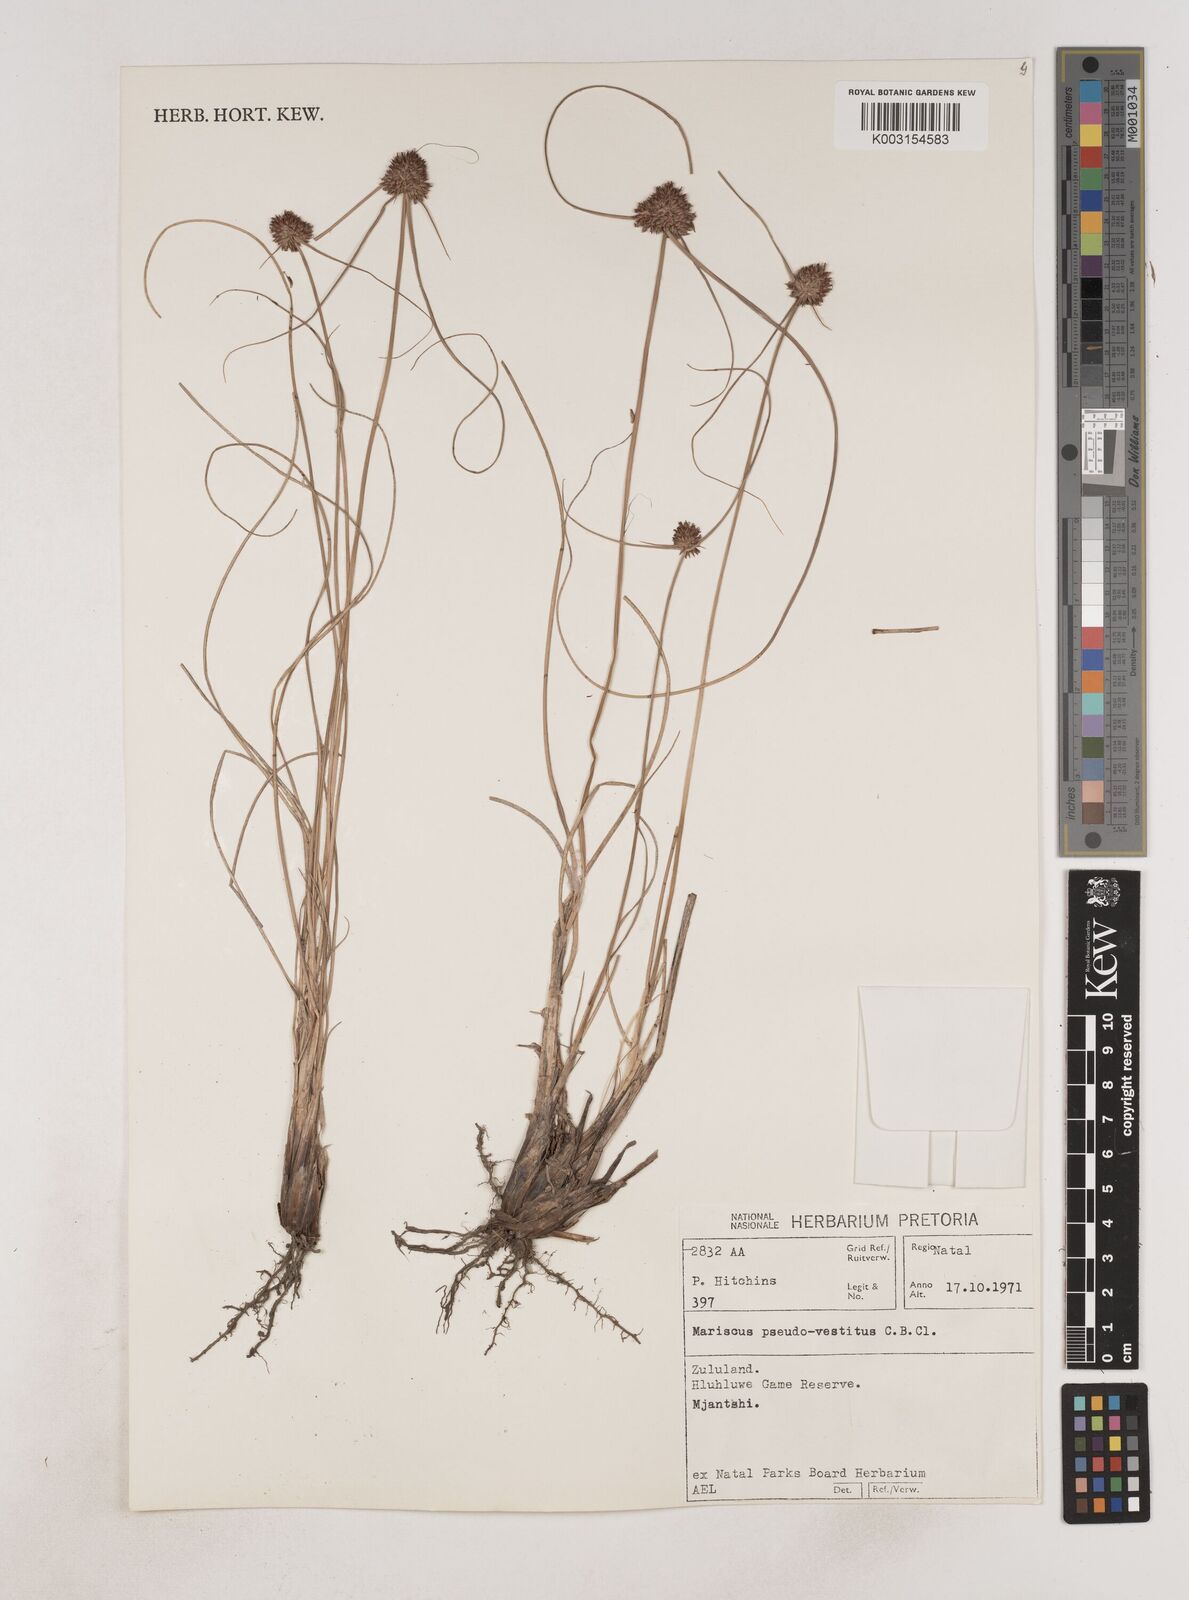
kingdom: Plantae
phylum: Tracheophyta
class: Liliopsida
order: Poales
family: Cyperaceae
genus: Cyperus
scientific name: Cyperus pseudovestitus
